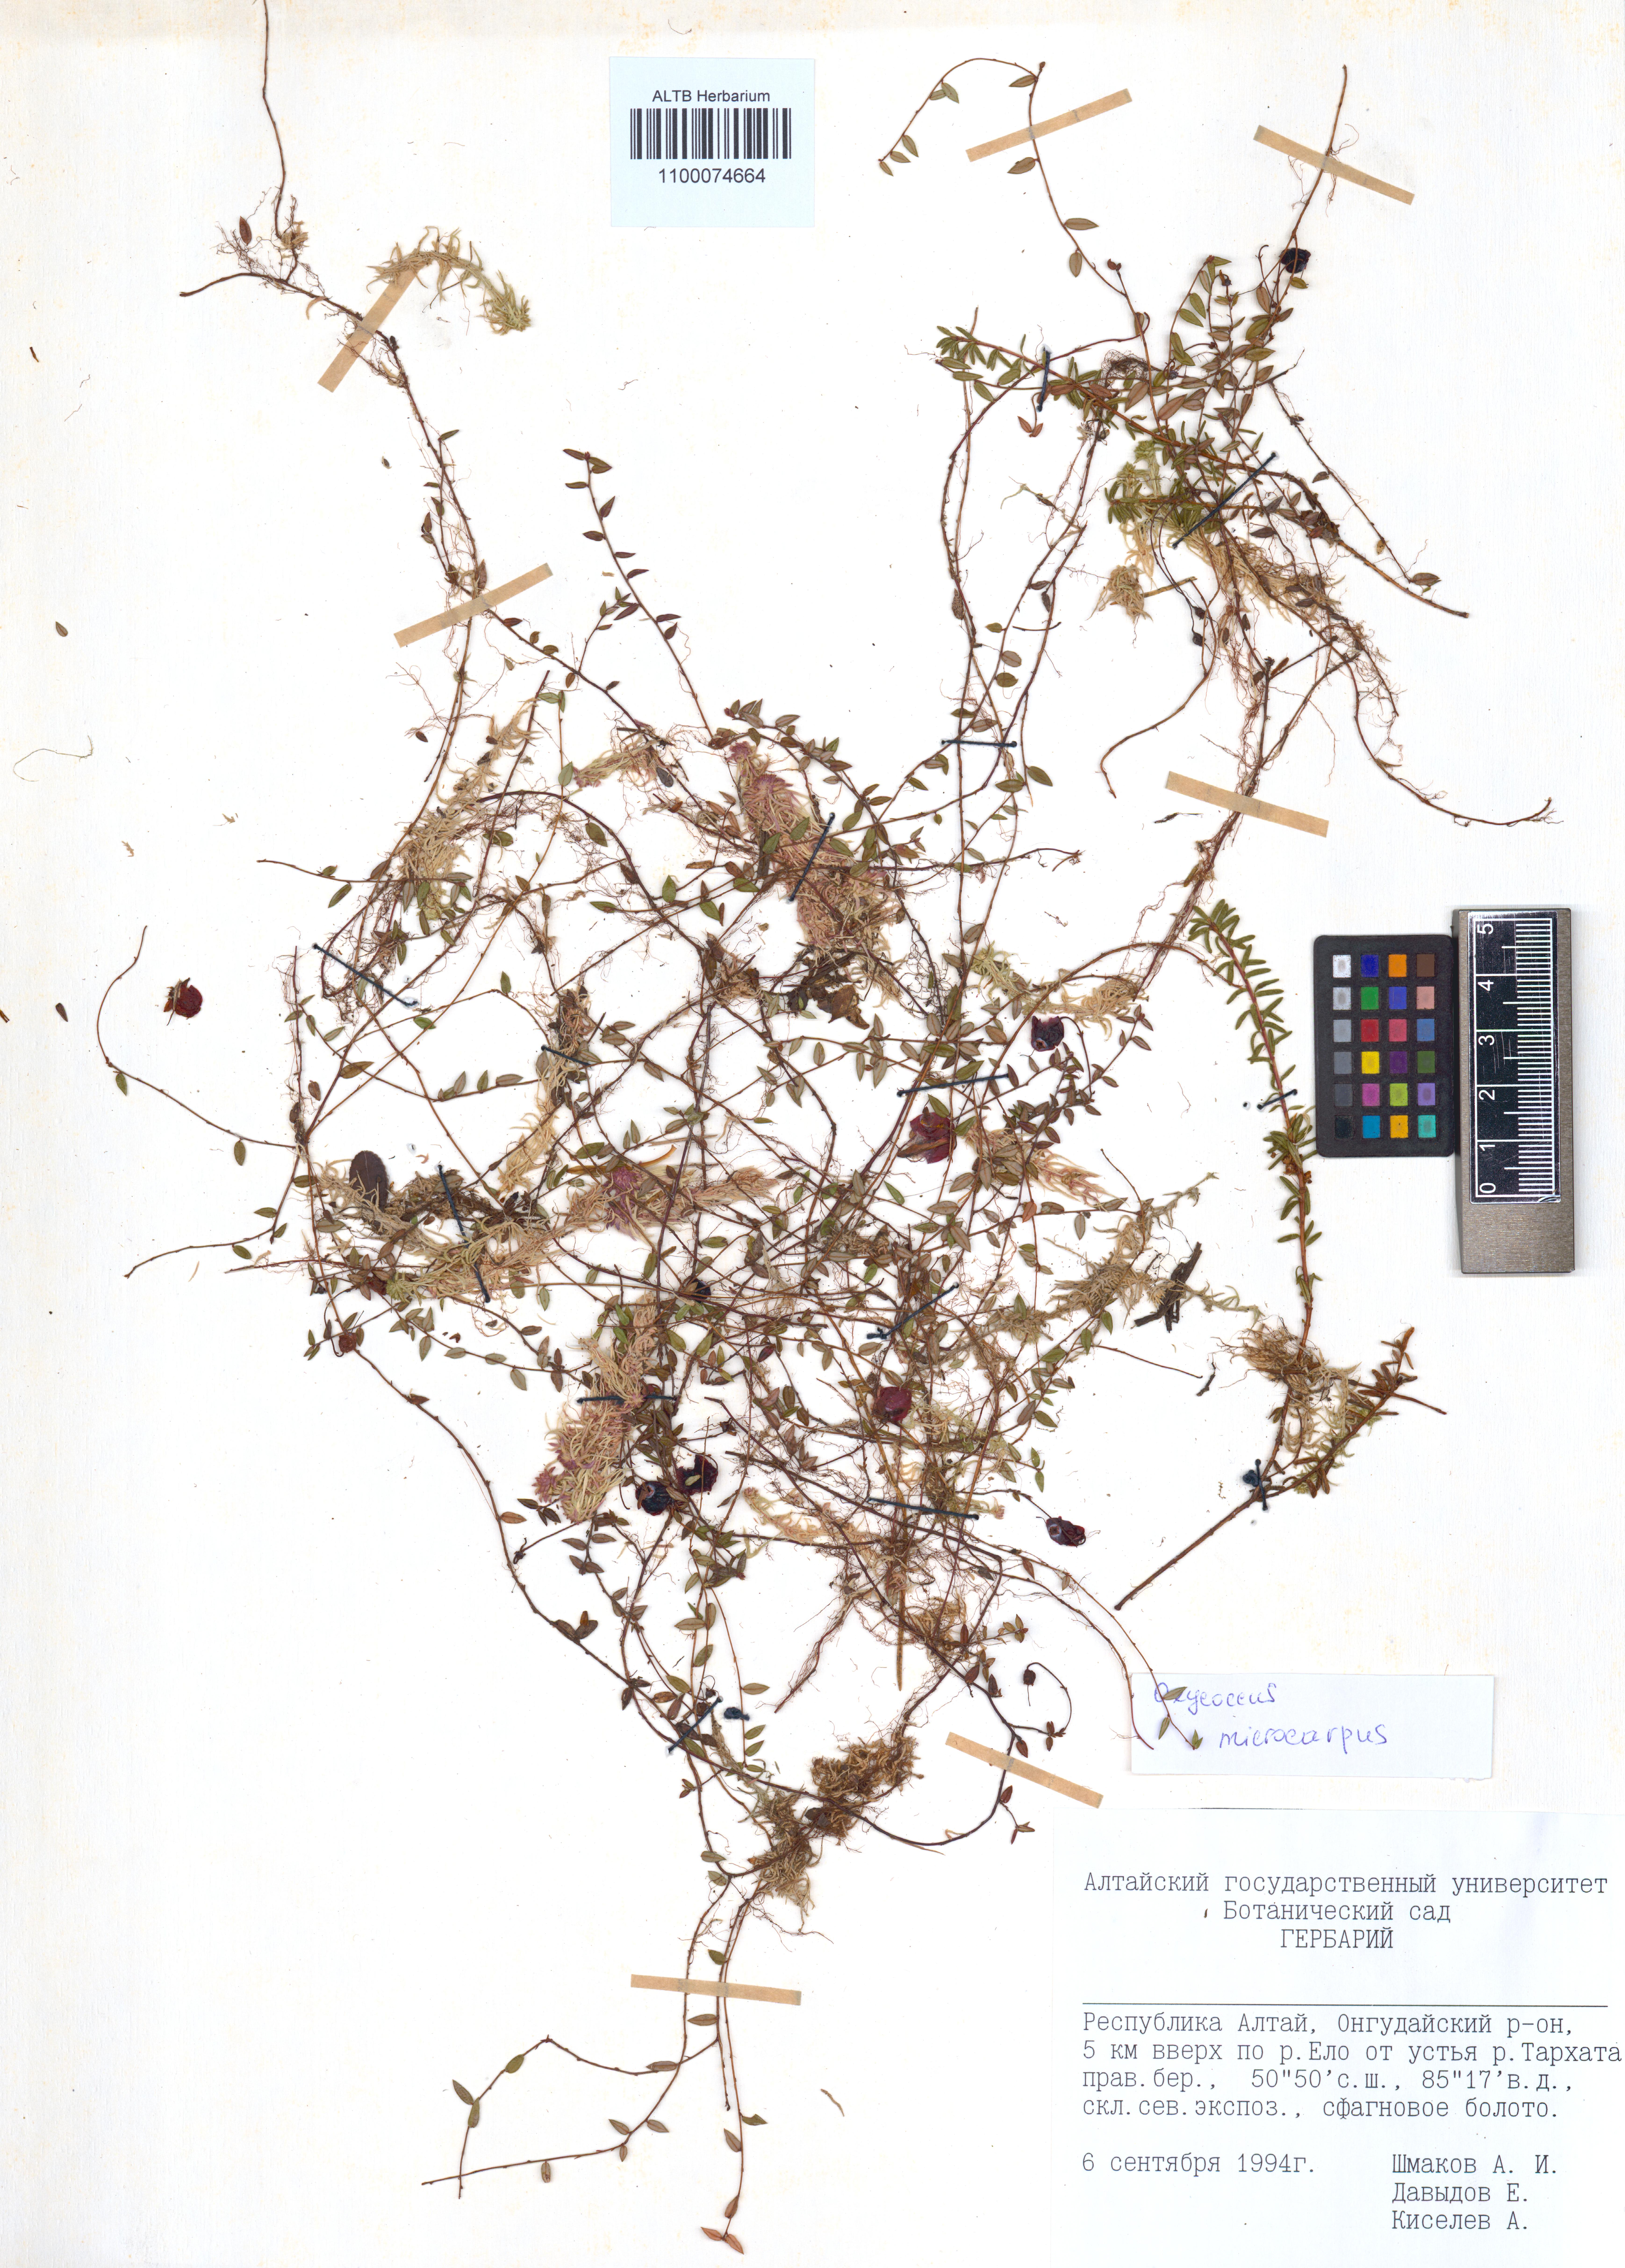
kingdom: Plantae
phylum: Tracheophyta
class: Magnoliopsida
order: Ericales
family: Ericaceae
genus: Vaccinium
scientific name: Vaccinium microcarpum
